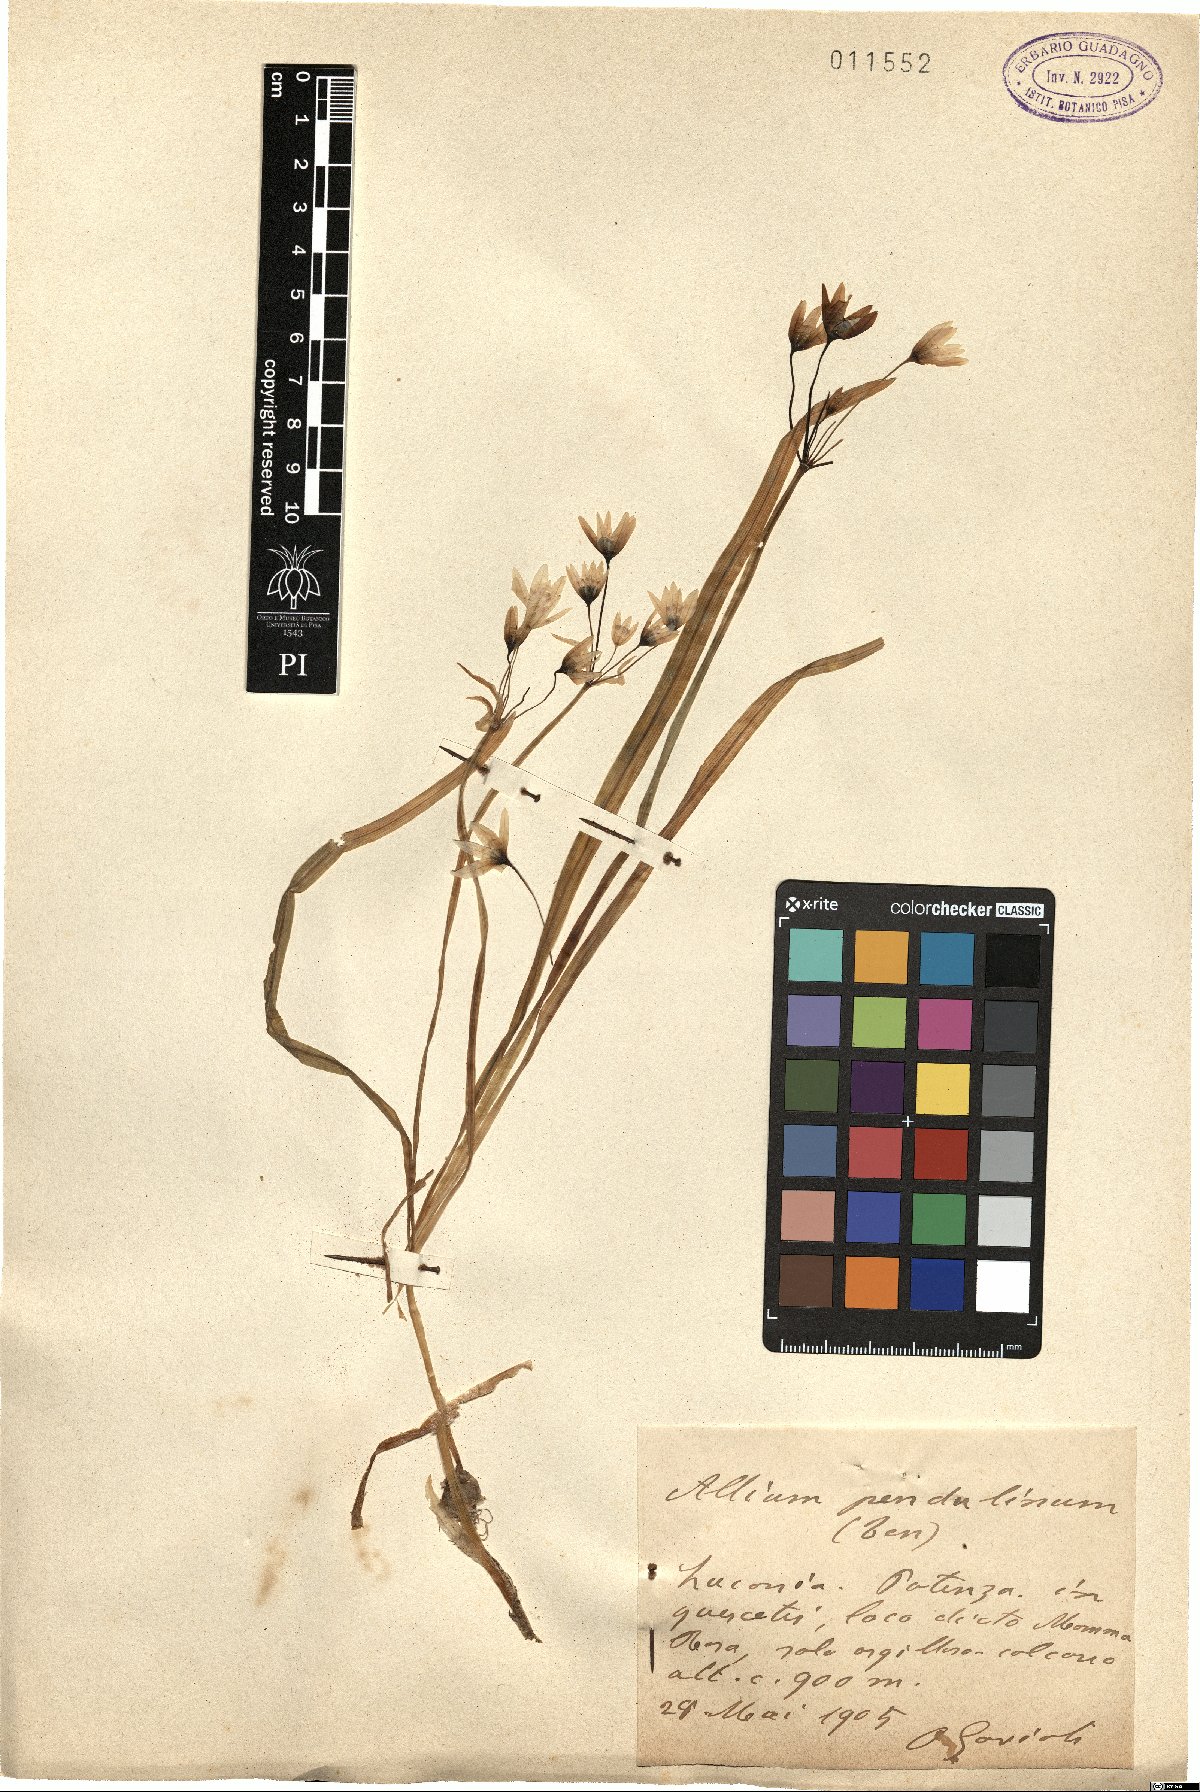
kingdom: Plantae
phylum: Tracheophyta
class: Liliopsida
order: Asparagales
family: Amaryllidaceae
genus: Allium
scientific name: Allium pendulinum
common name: Italian garlic
